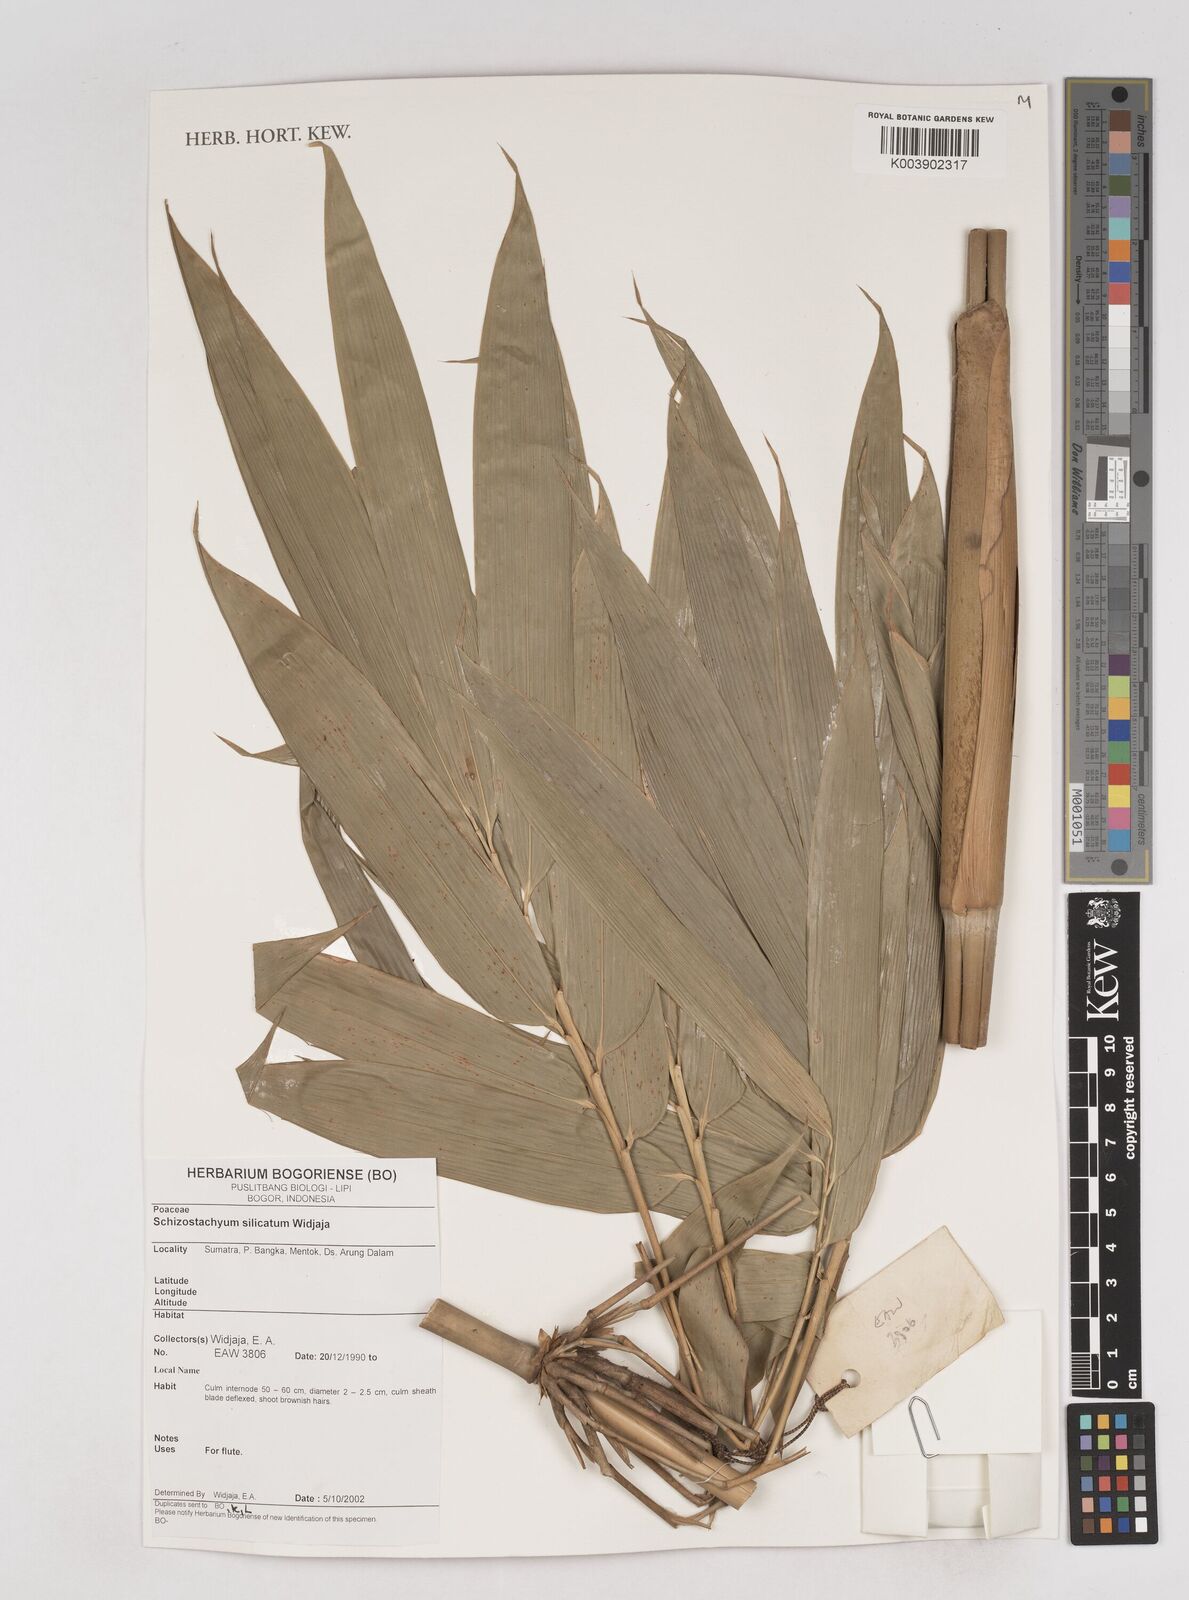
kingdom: Plantae
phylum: Tracheophyta
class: Liliopsida
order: Poales
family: Poaceae
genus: Schizostachyum
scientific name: Schizostachyum silicatum
